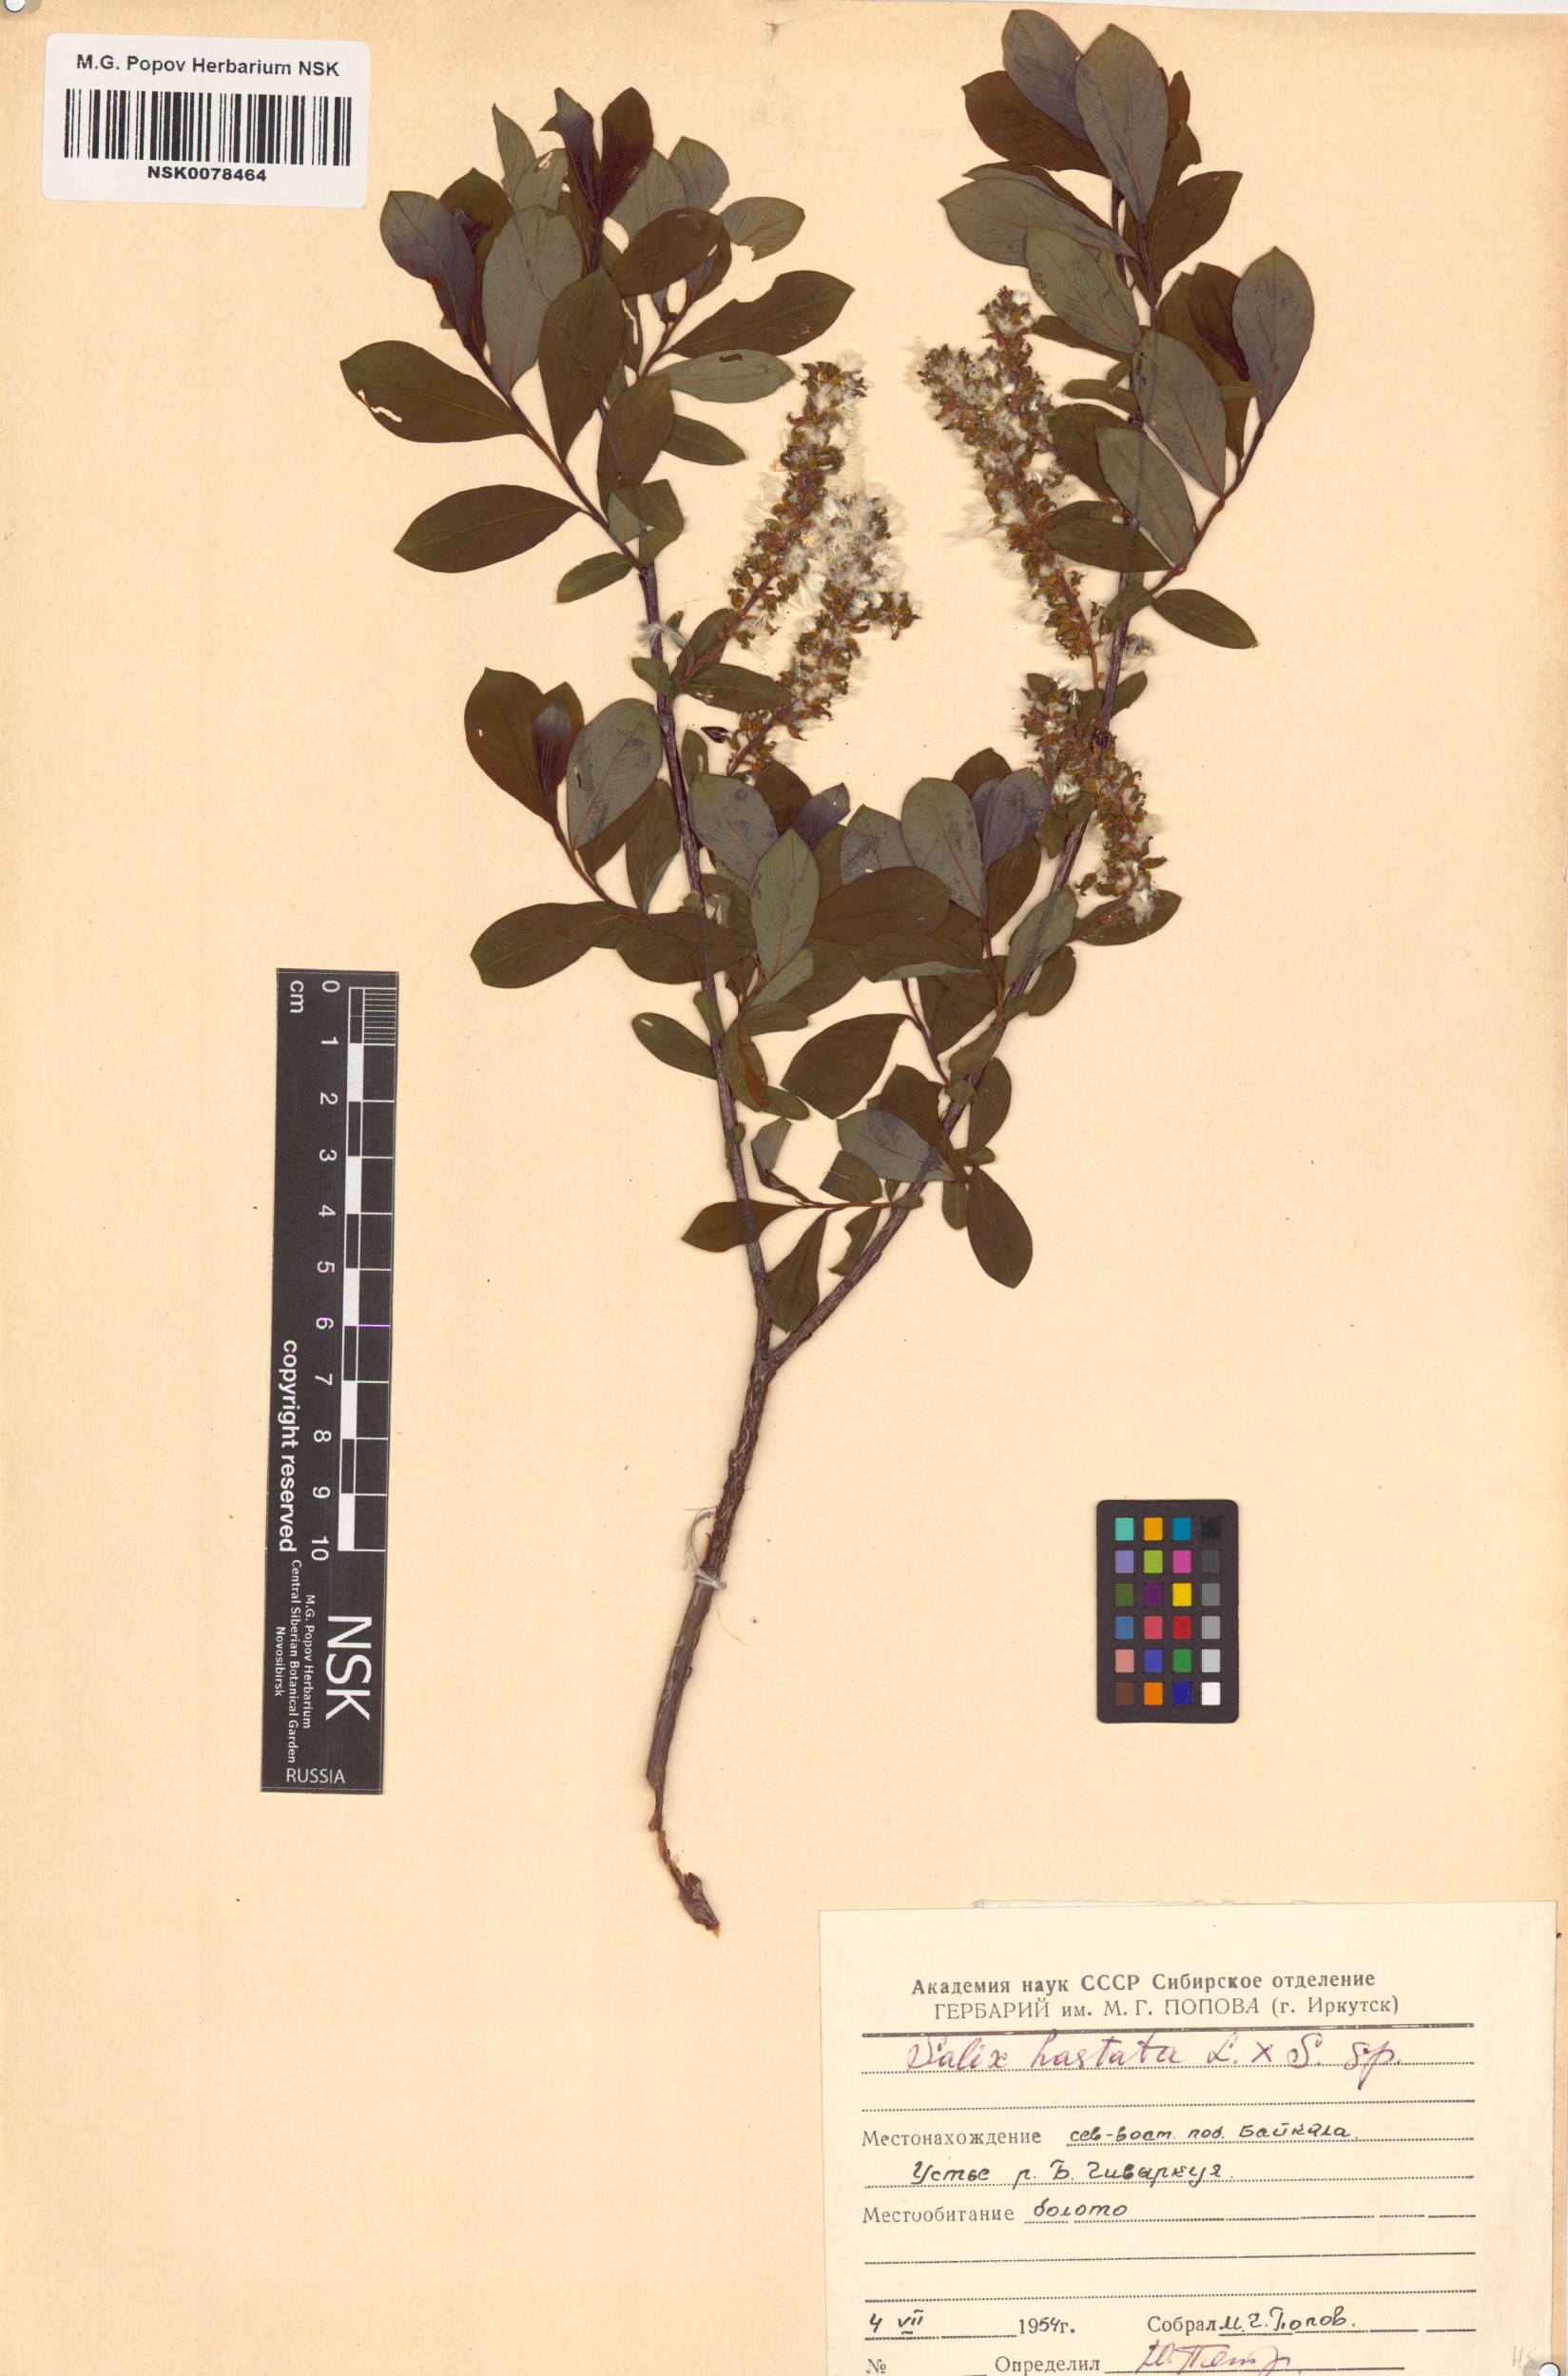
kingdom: Plantae
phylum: Tracheophyta
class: Magnoliopsida
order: Malpighiales
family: Salicaceae
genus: Salix
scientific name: Salix
